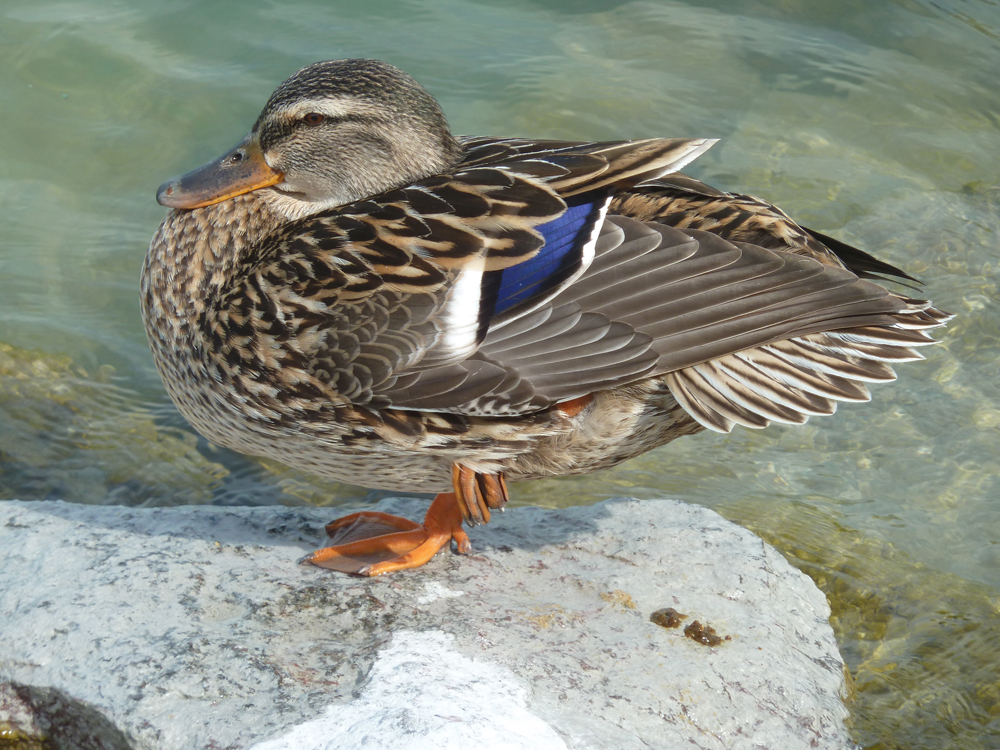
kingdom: Animalia
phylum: Chordata
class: Aves
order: Anseriformes
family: Anatidae
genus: Anas
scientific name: Anas platyrhynchos
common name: Mallard
